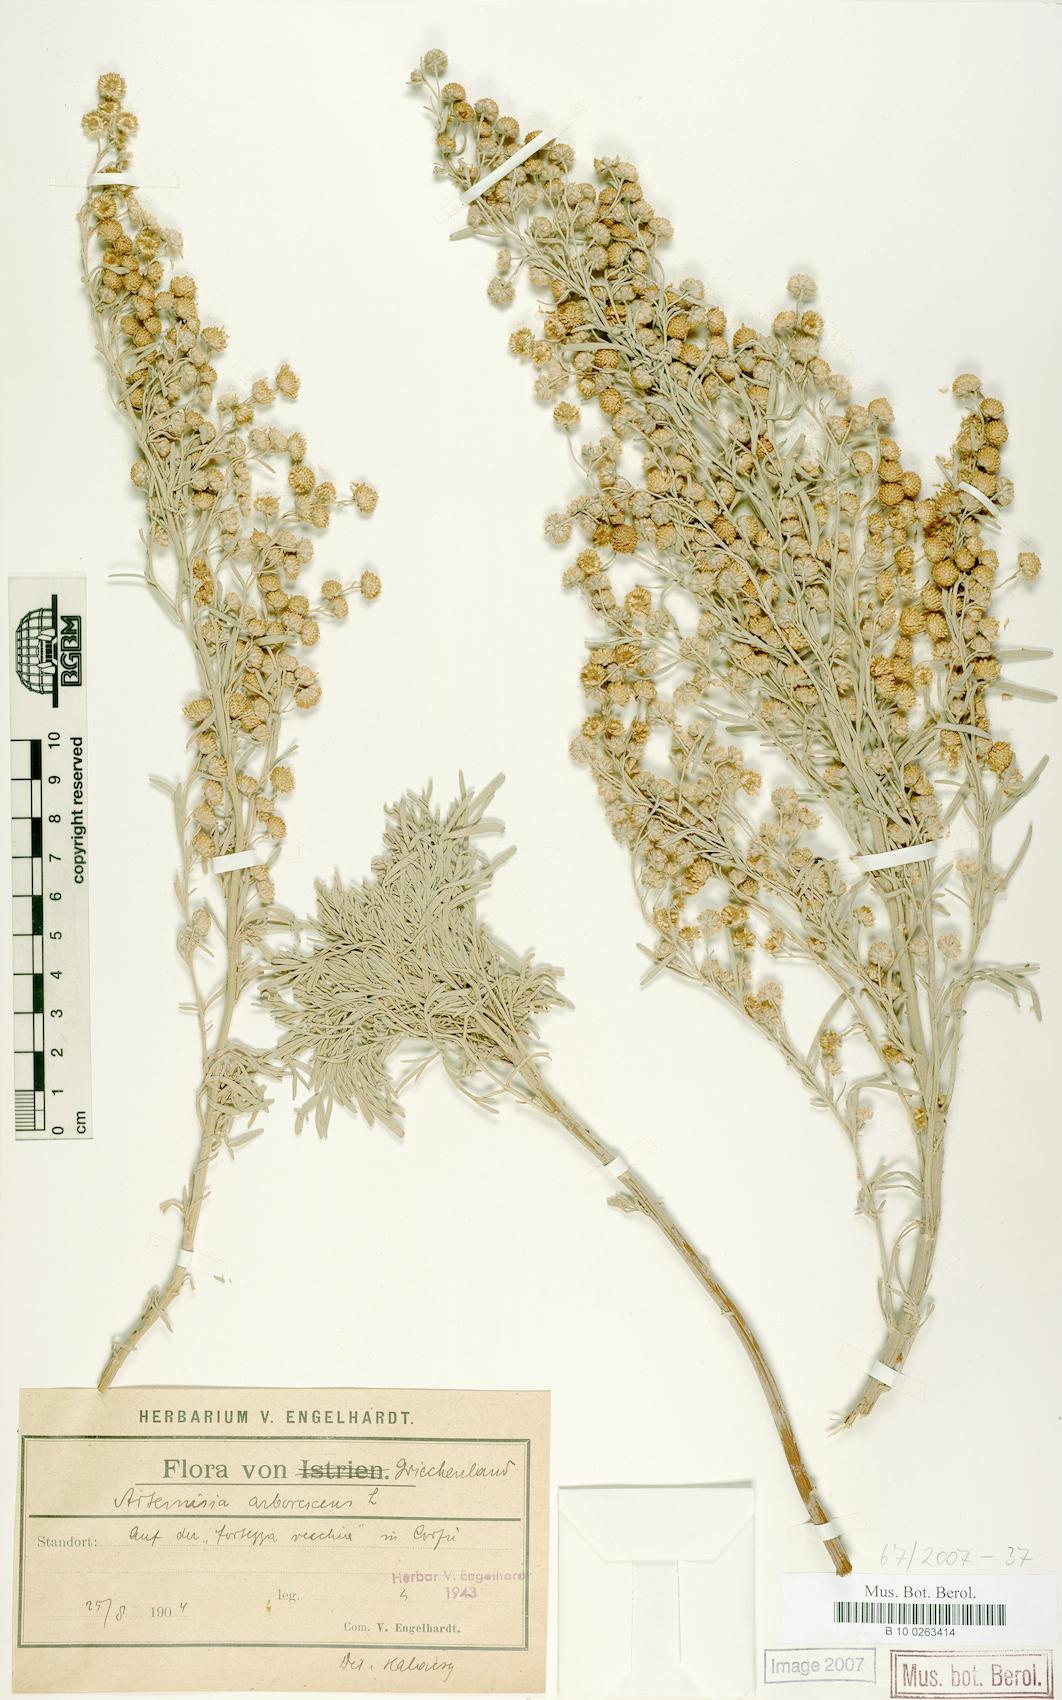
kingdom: Plantae
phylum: Tracheophyta
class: Magnoliopsida
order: Asterales
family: Asteraceae
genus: Artemisia
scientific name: Artemisia arborescens
